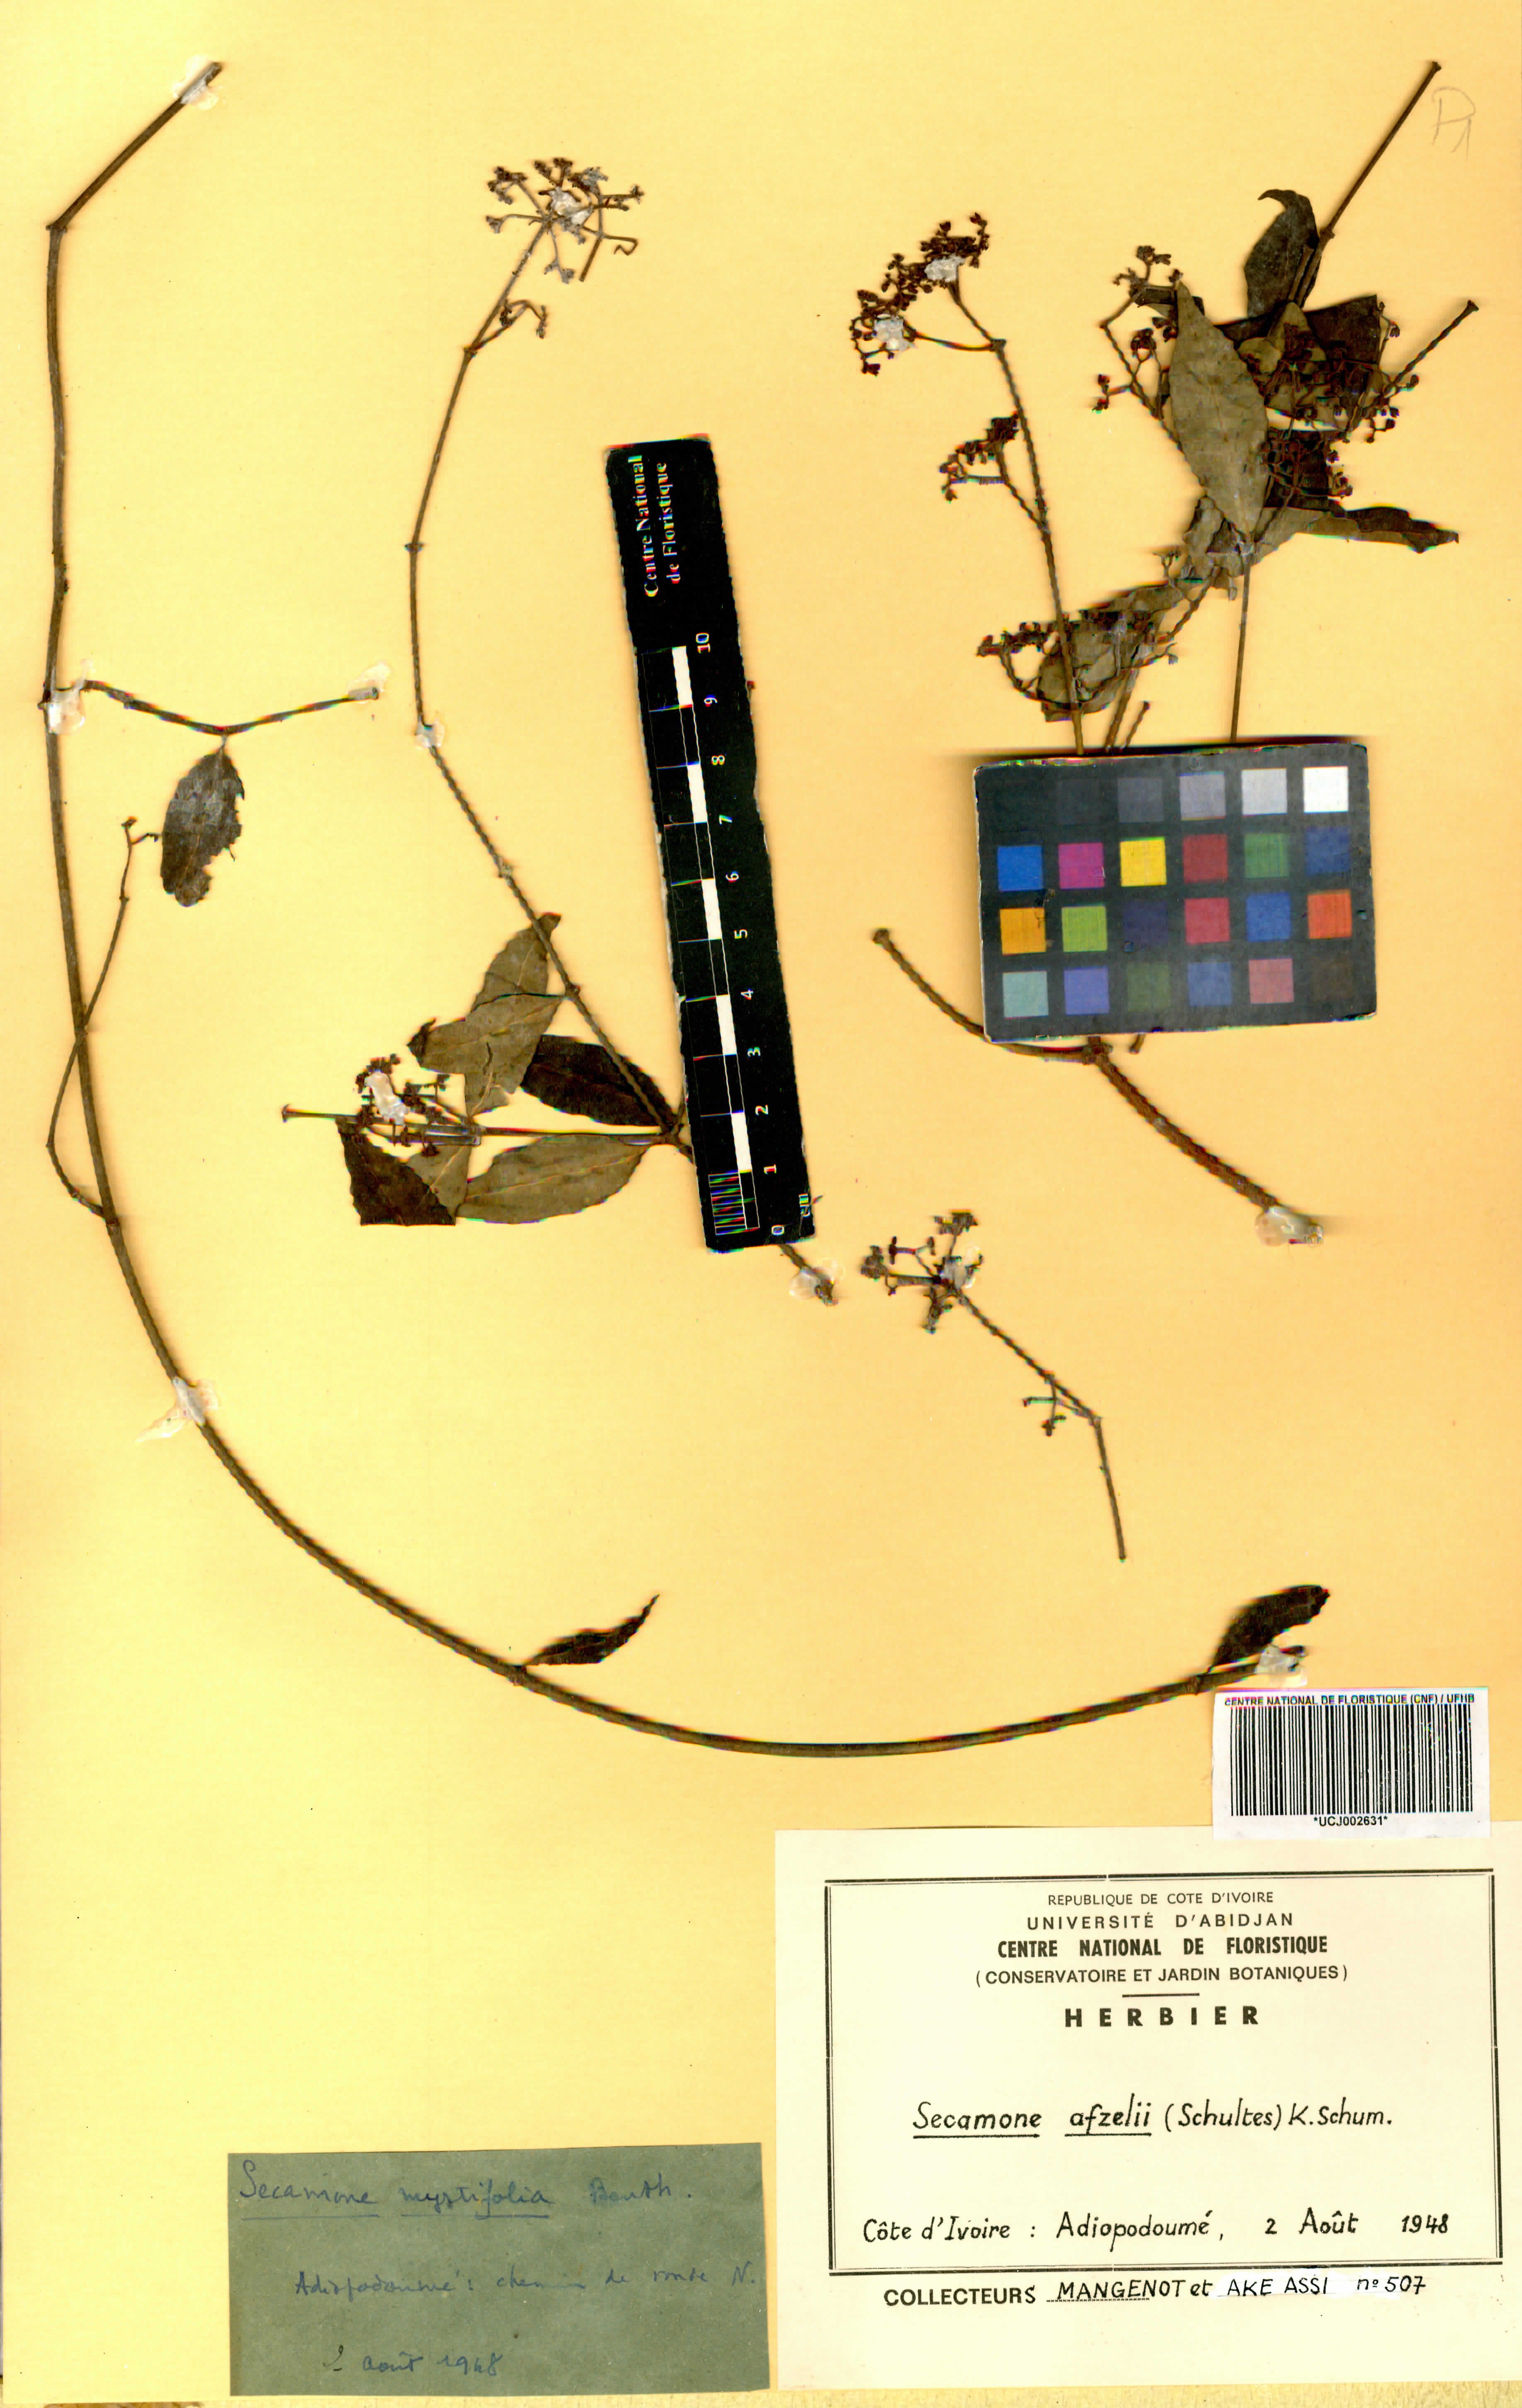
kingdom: Plantae
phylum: Tracheophyta
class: Magnoliopsida
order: Gentianales
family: Apocynaceae
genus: Secamone
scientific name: Secamone afzelii
